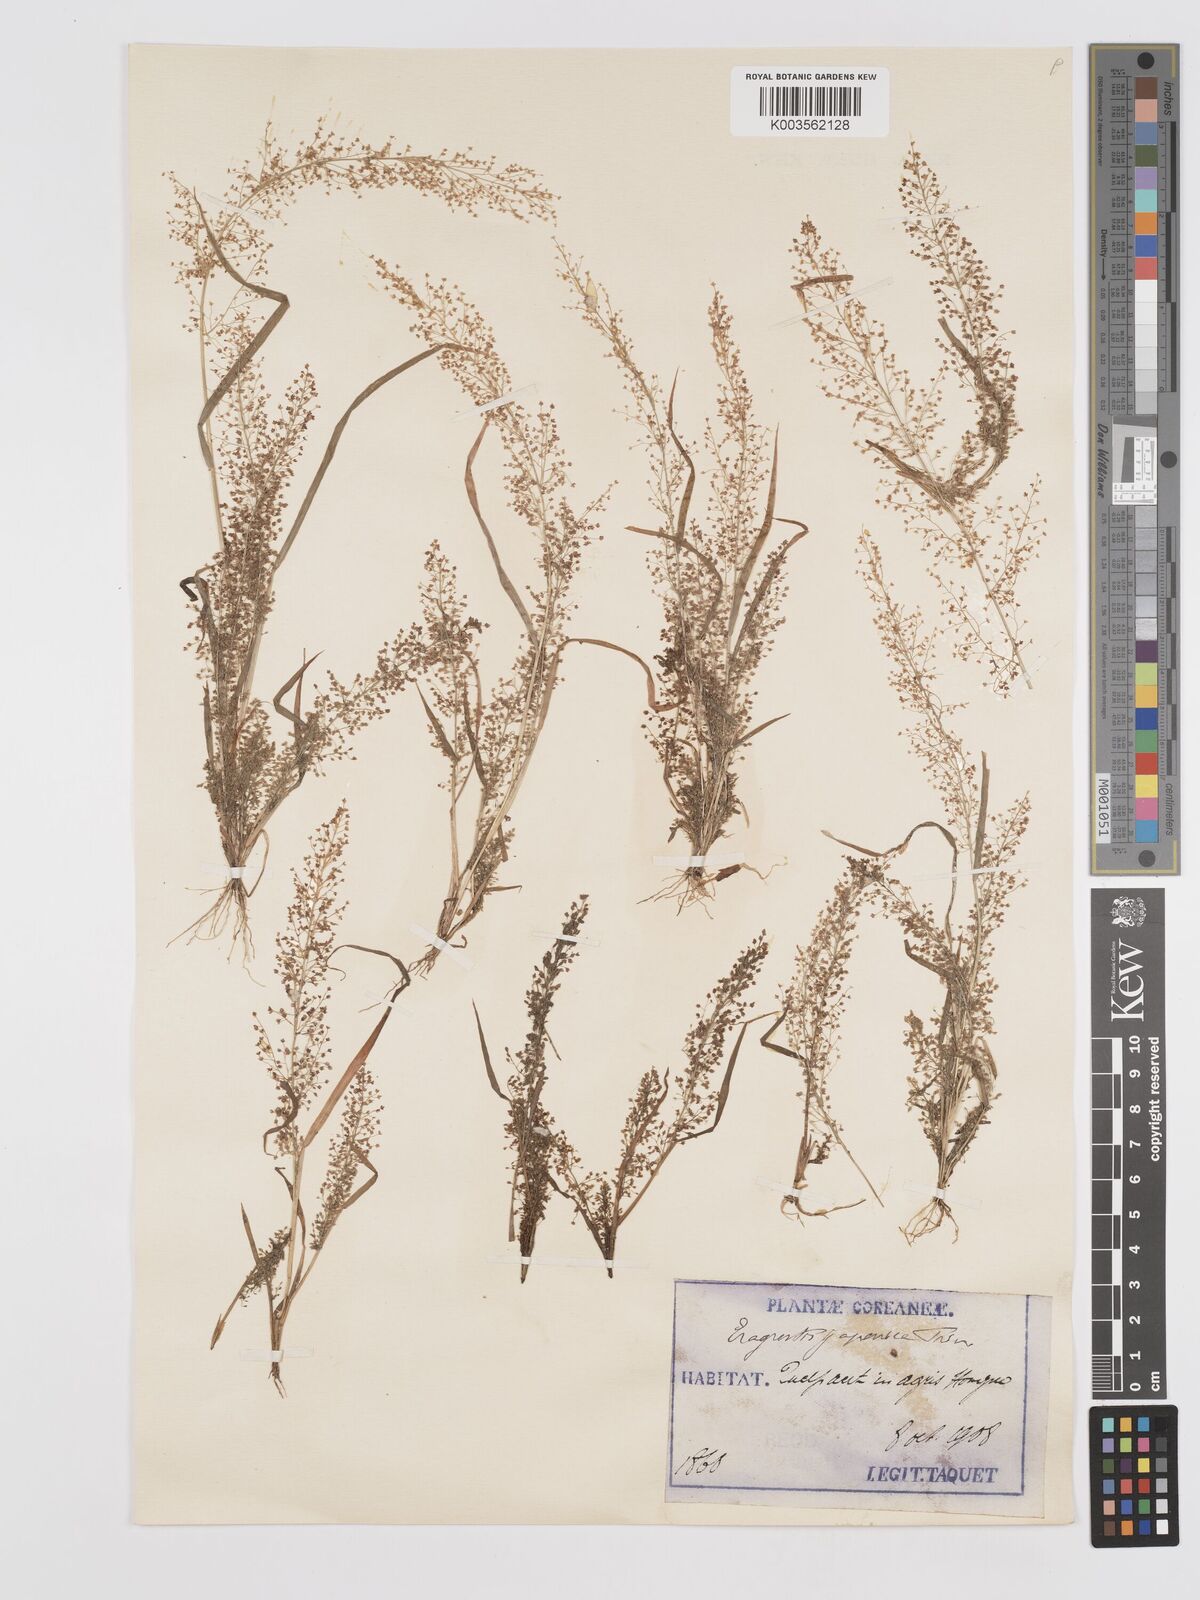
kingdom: Plantae
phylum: Tracheophyta
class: Liliopsida
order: Poales
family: Poaceae
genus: Eragrostis
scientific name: Eragrostis japonica
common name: Pond lovegrass
